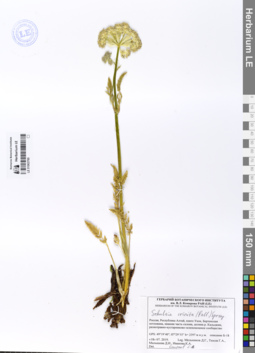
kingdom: Plantae
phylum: Tracheophyta
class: Magnoliopsida
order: Apiales
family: Apiaceae
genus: Schulzia
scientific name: Schulzia crinita
